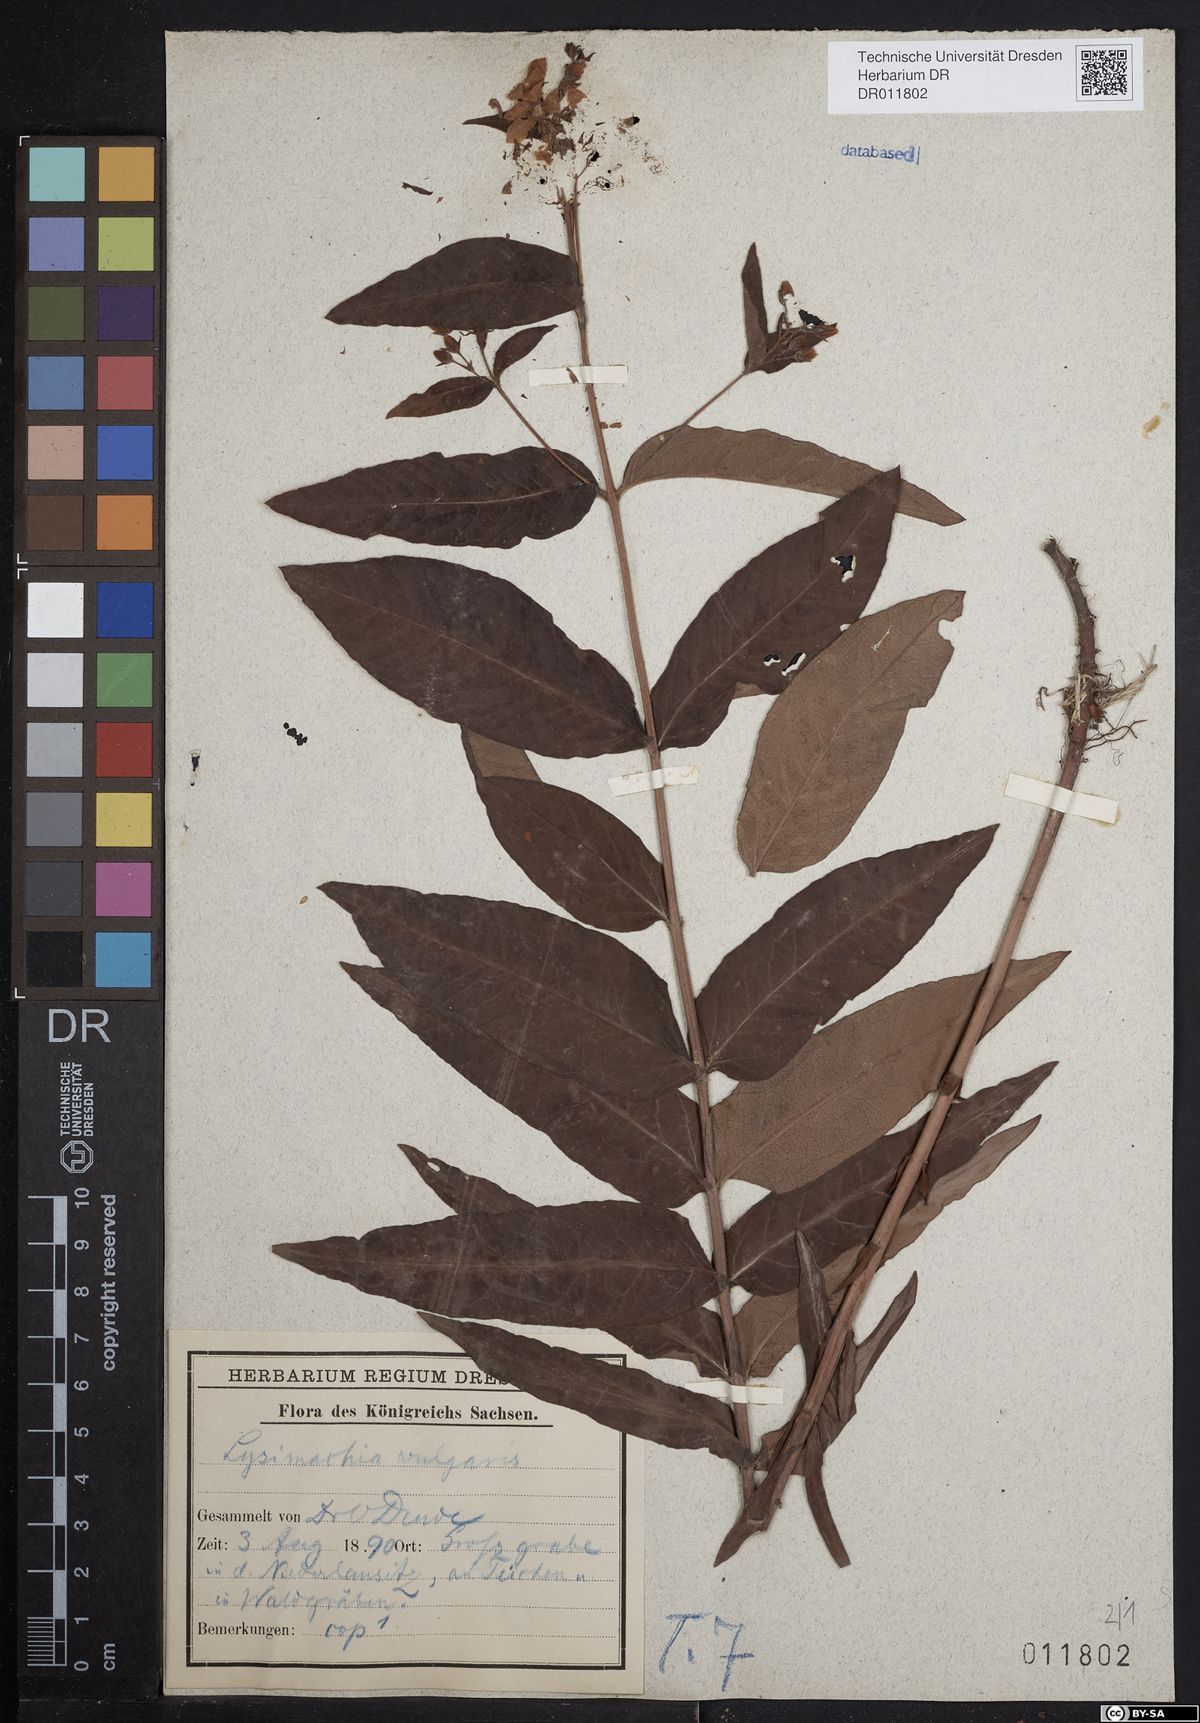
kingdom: Plantae
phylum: Tracheophyta
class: Magnoliopsida
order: Ericales
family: Primulaceae
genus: Lysimachia
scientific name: Lysimachia vulgaris
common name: Yellow loosestrife
